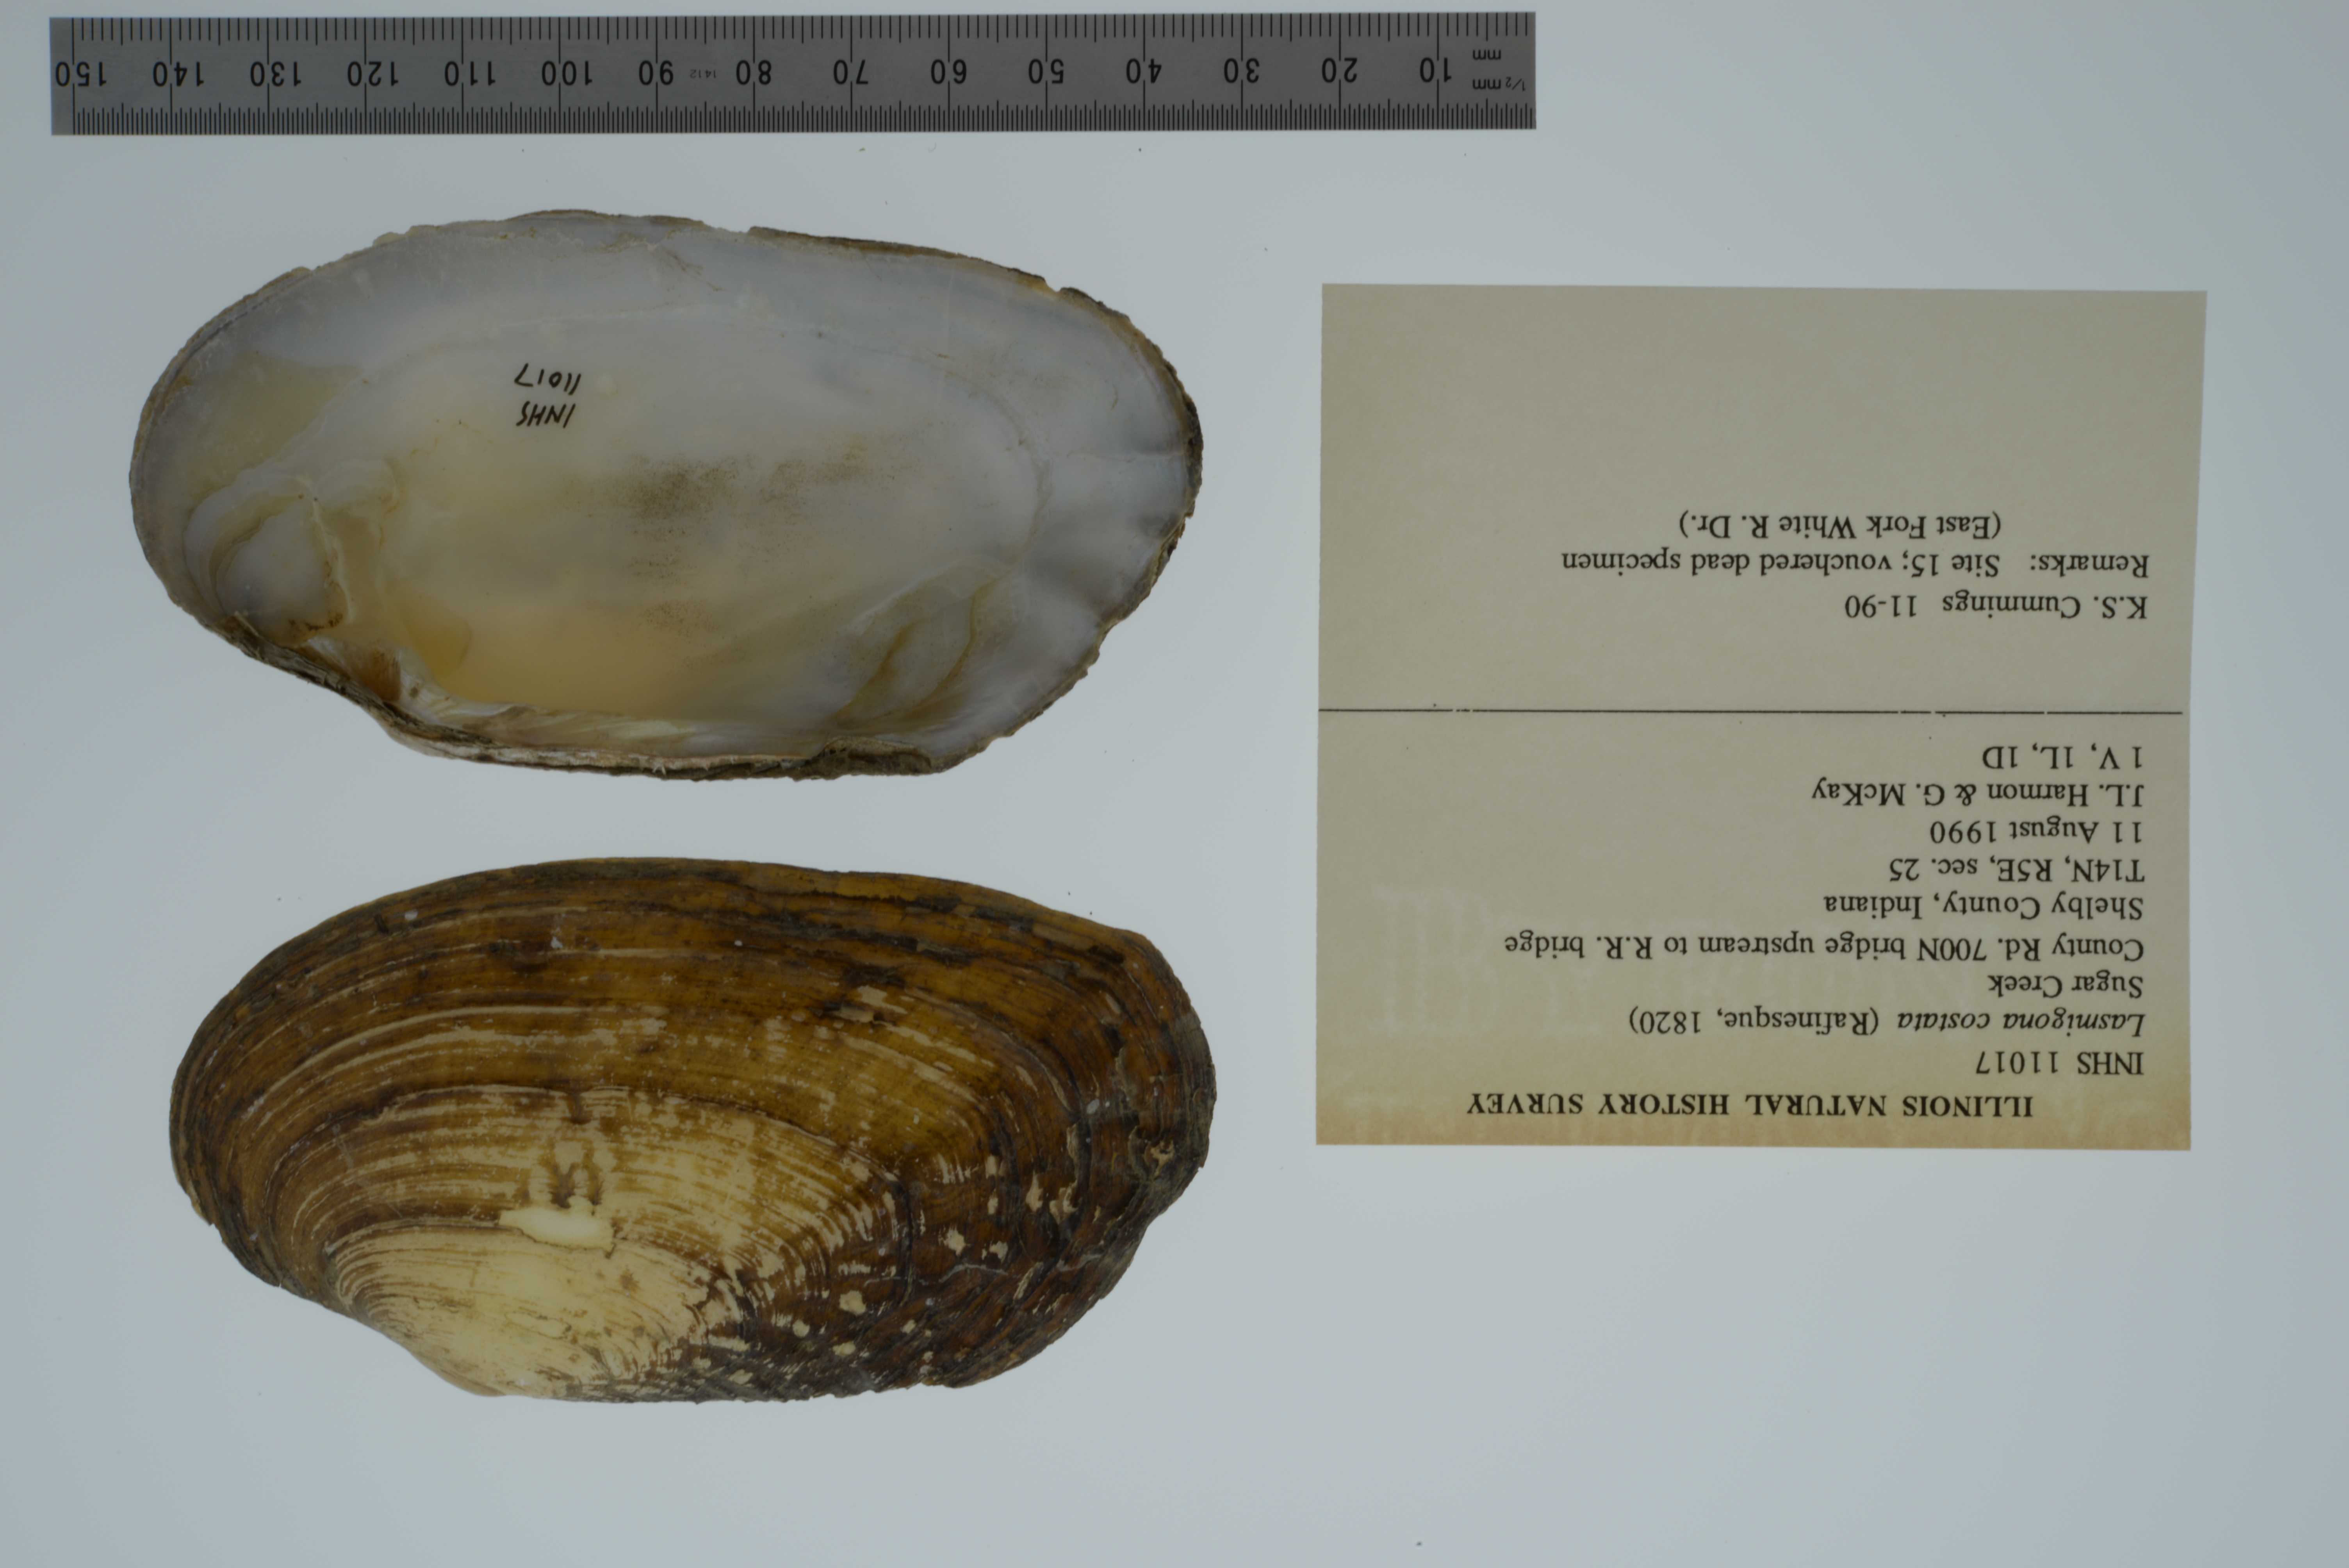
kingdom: Animalia
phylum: Mollusca
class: Bivalvia
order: Unionida
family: Unionidae
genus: Lasmigona
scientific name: Lasmigona costata
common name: Flutedshell
